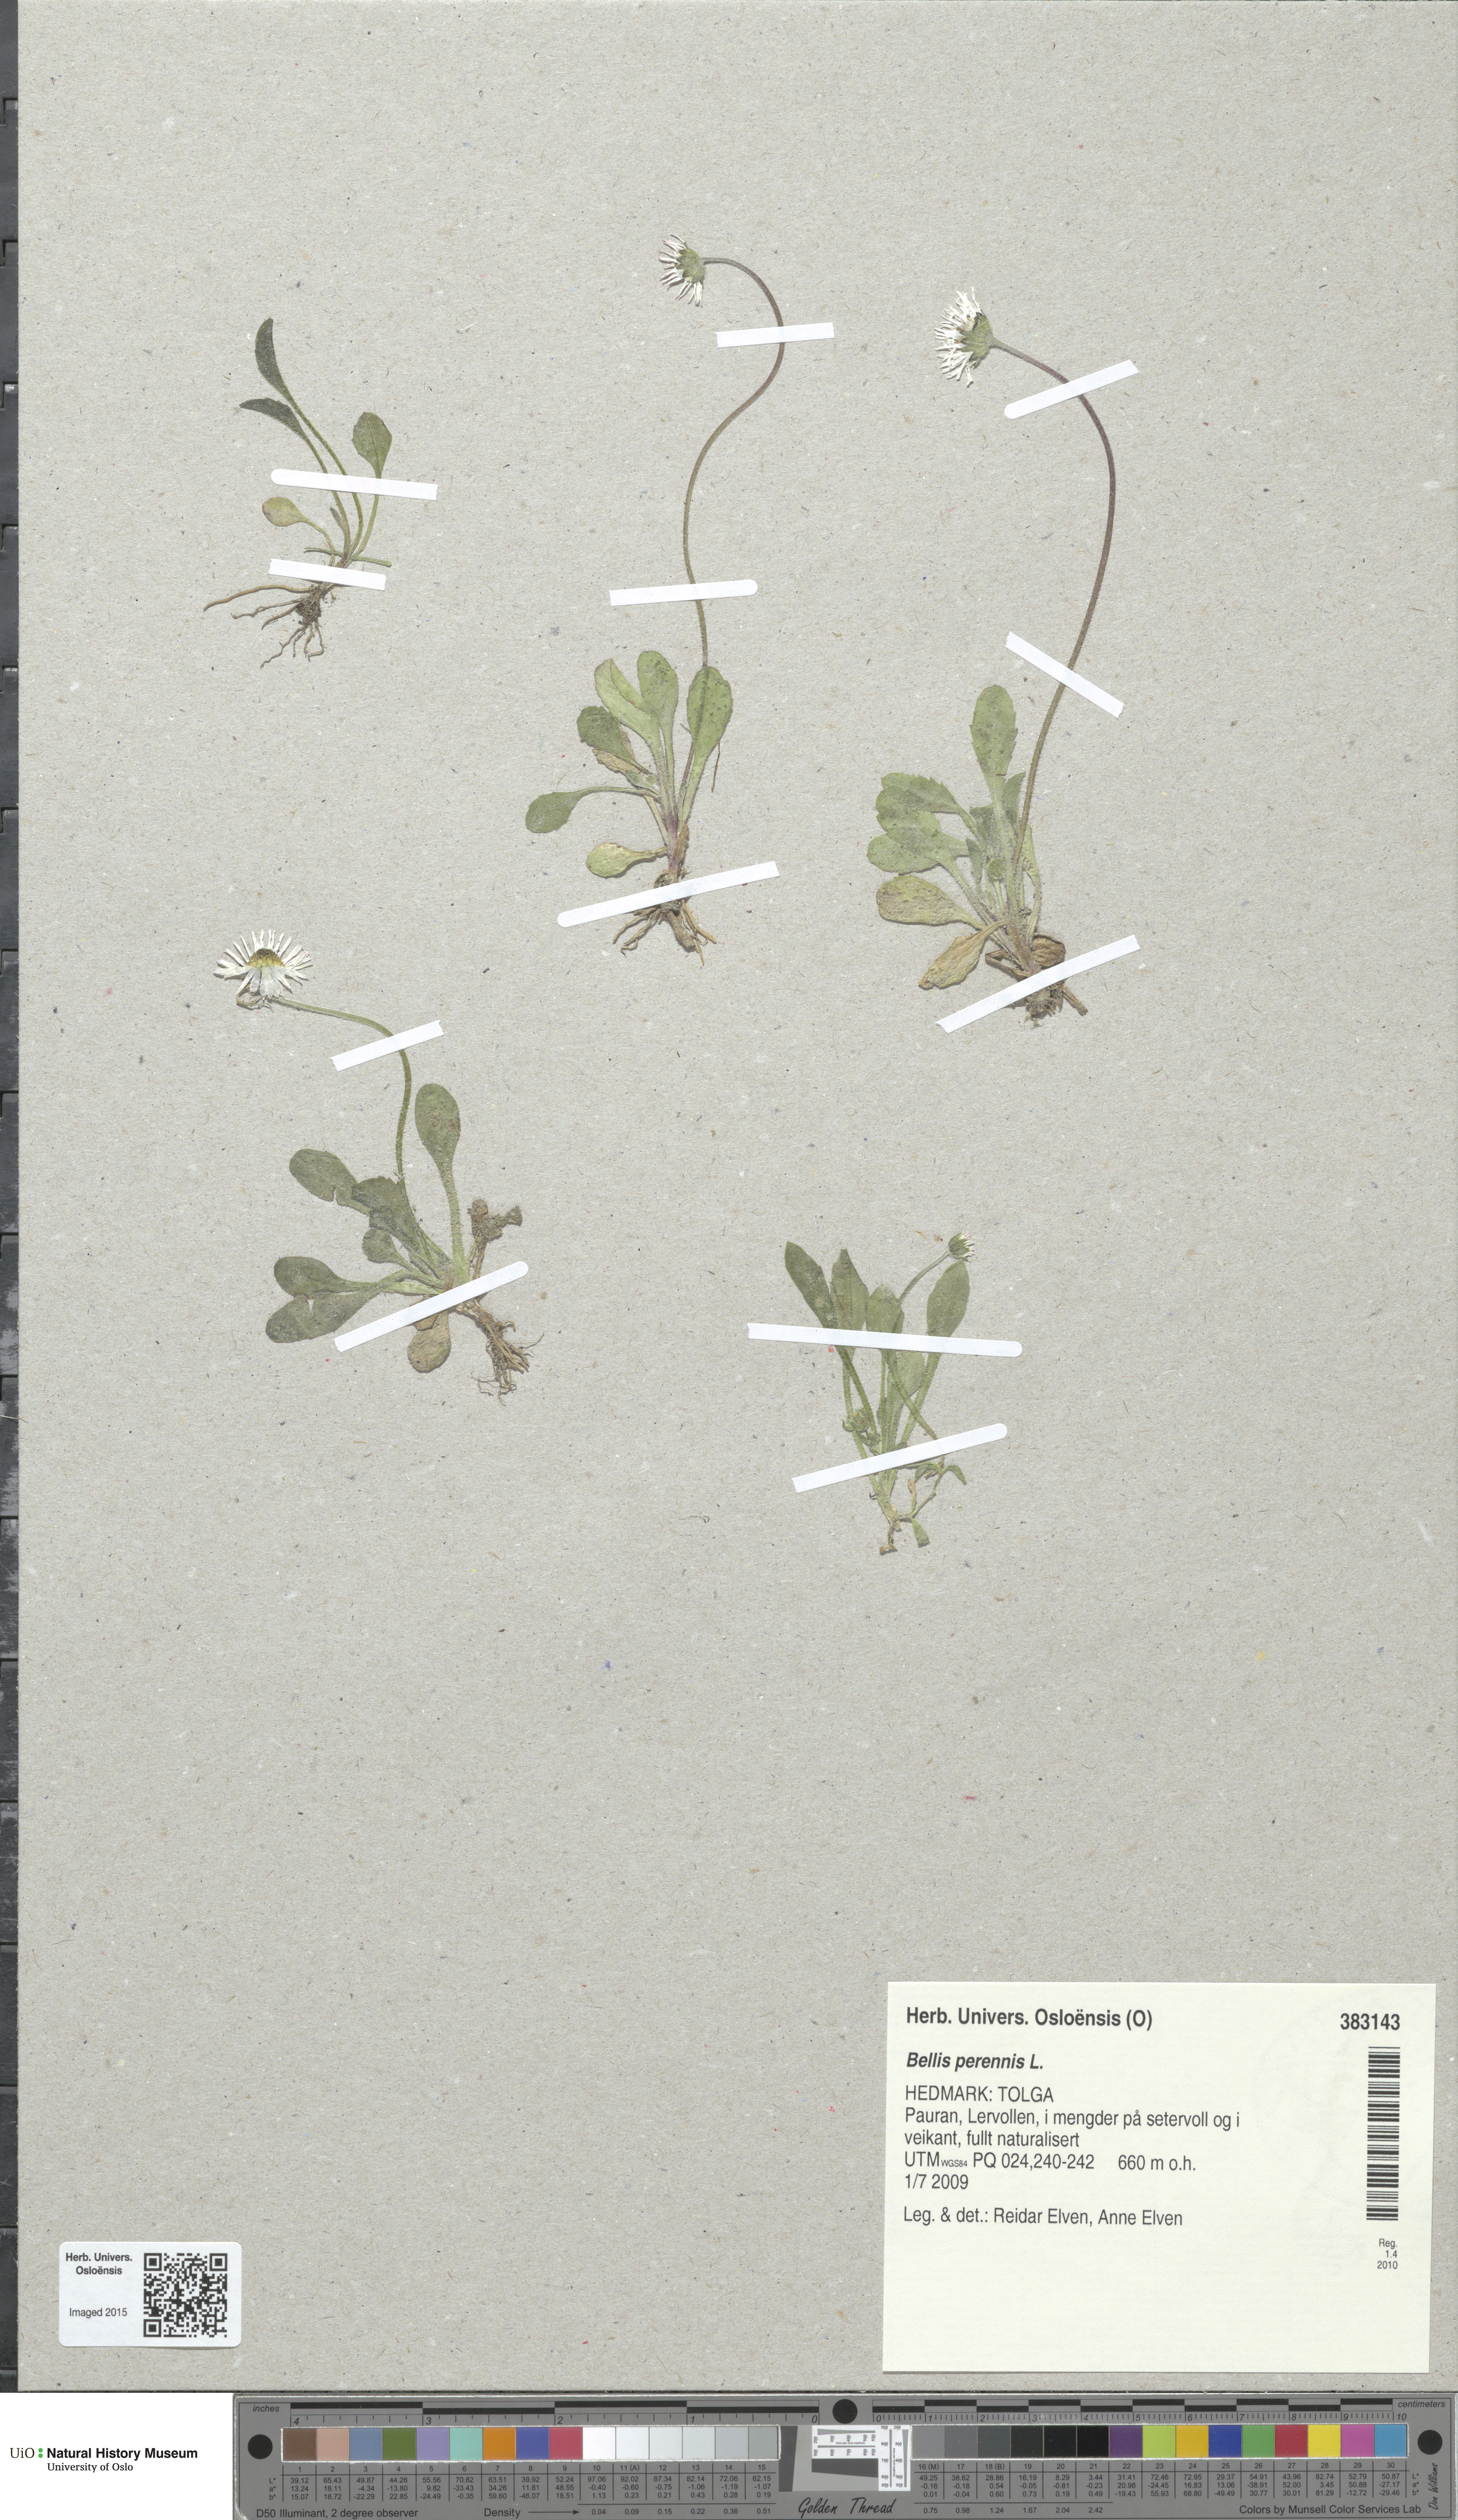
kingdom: Plantae
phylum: Tracheophyta
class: Magnoliopsida
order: Asterales
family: Asteraceae
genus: Bellis
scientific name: Bellis perennis
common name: Lawndaisy
